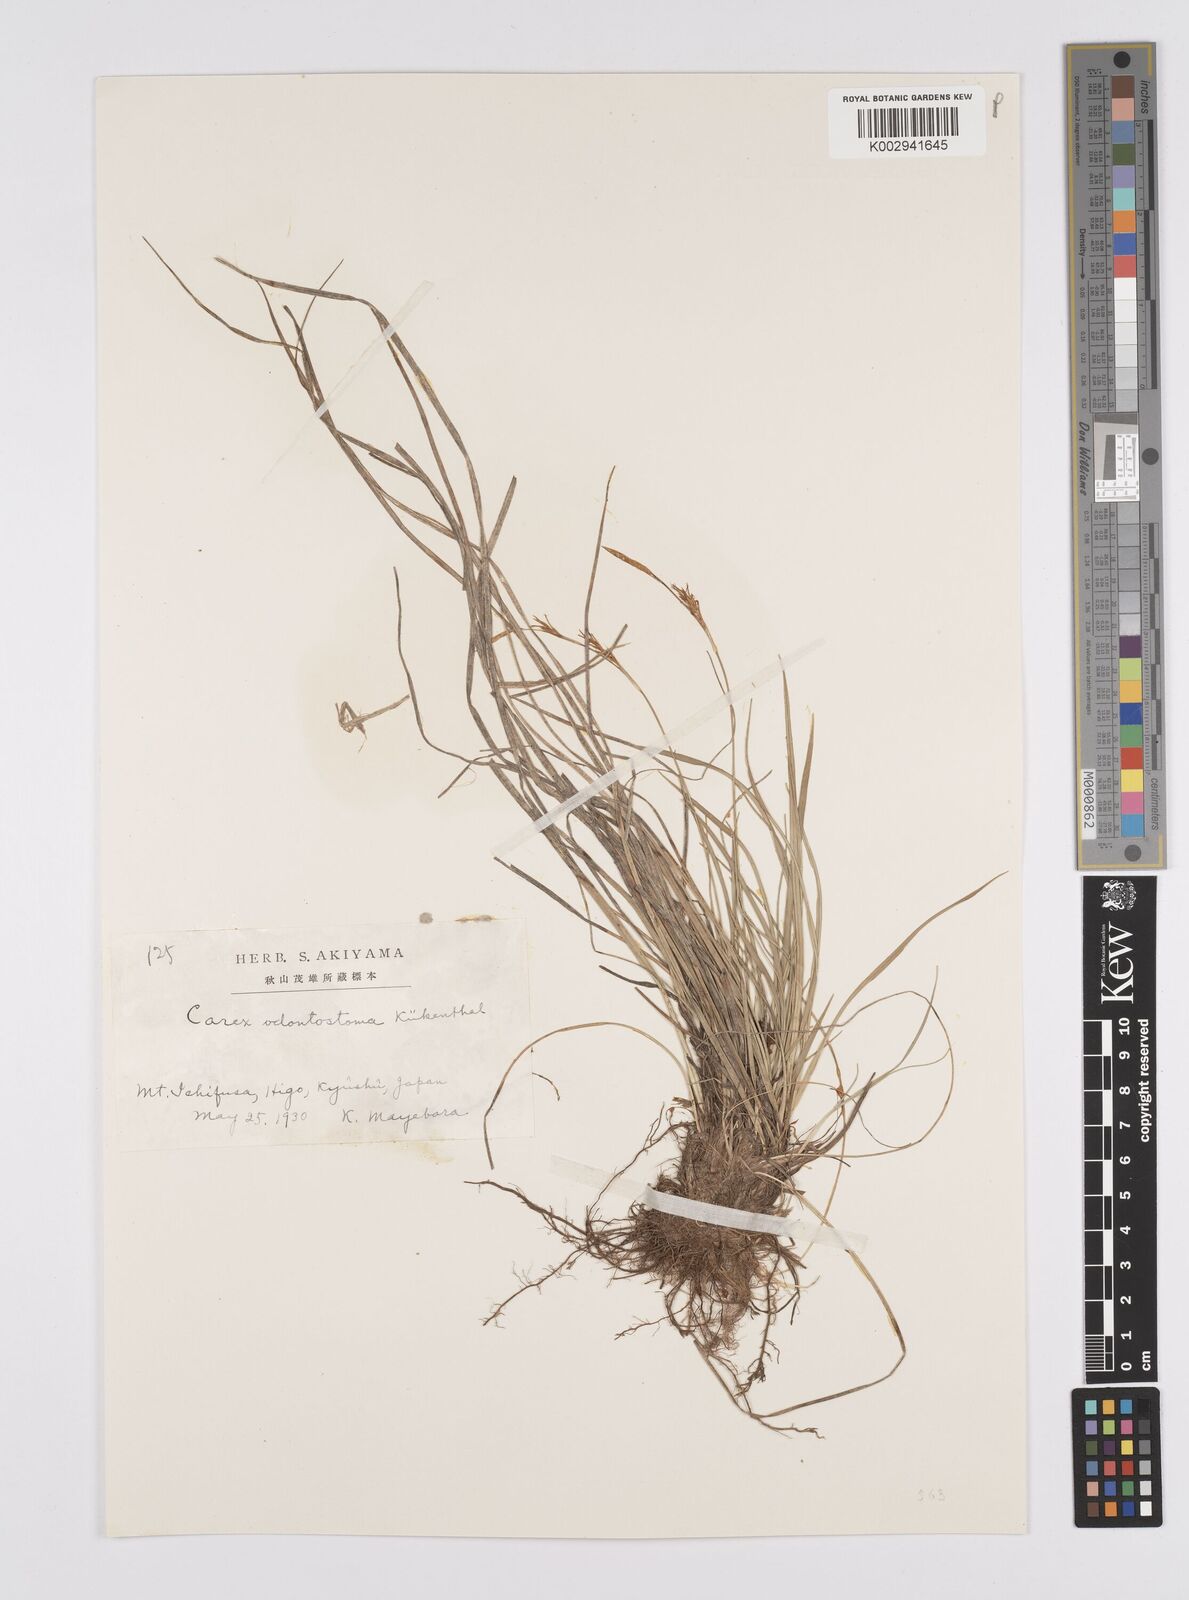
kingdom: Plantae
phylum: Tracheophyta
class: Liliopsida
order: Poales
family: Cyperaceae
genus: Carex
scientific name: Carex chrysolepis
